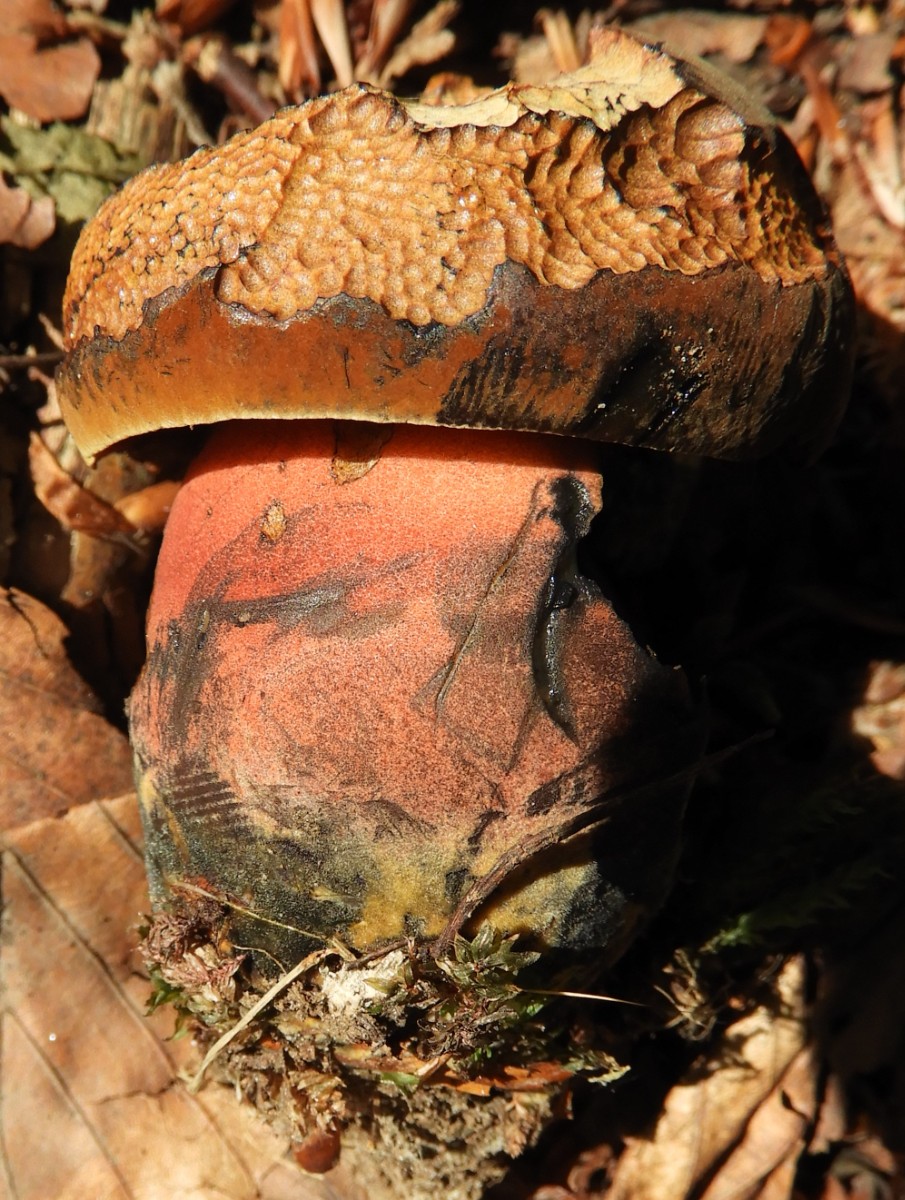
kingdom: Fungi
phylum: Basidiomycota
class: Agaricomycetes
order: Boletales
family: Boletaceae
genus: Neoboletus
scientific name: Neoboletus erythropus
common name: punktstokket indigorørhat
